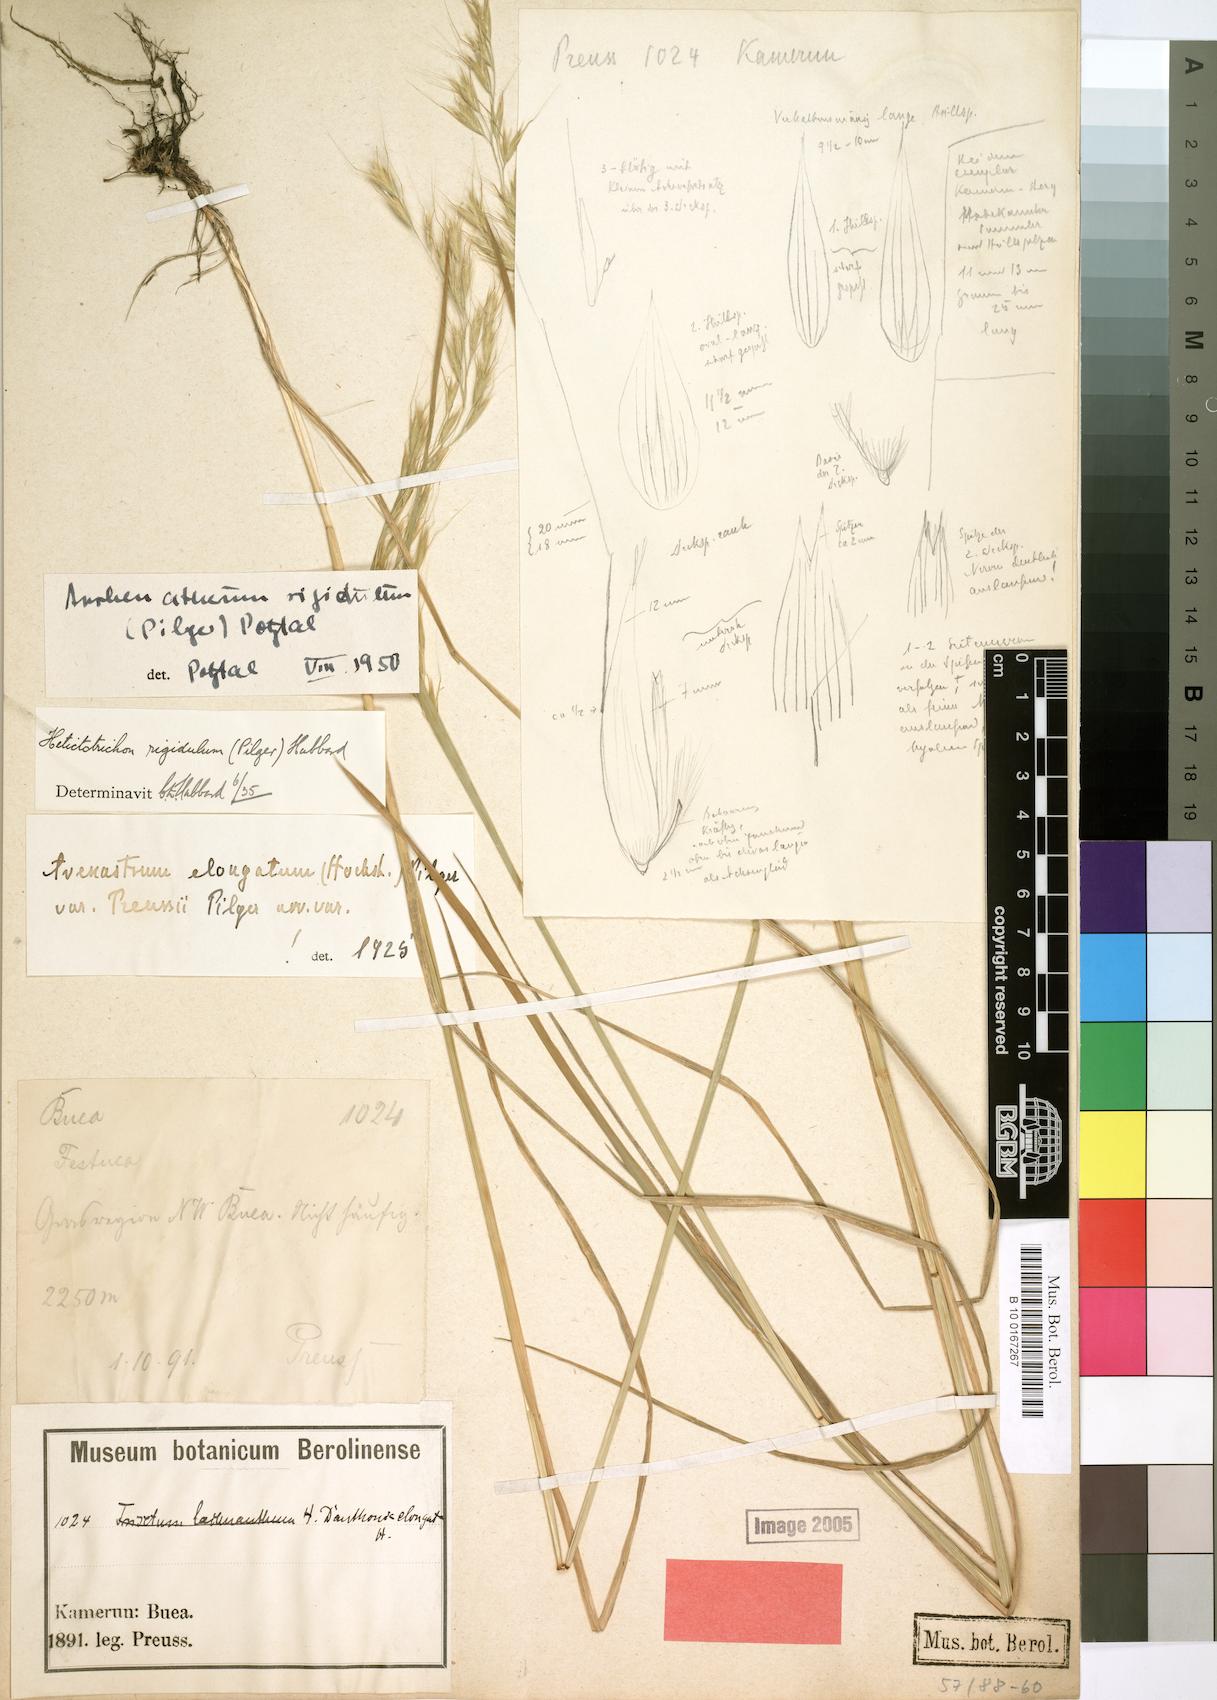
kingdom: Plantae
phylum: Tracheophyta
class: Liliopsida
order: Poales
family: Poaceae
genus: Trisetopsis
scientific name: Trisetopsis elongata
